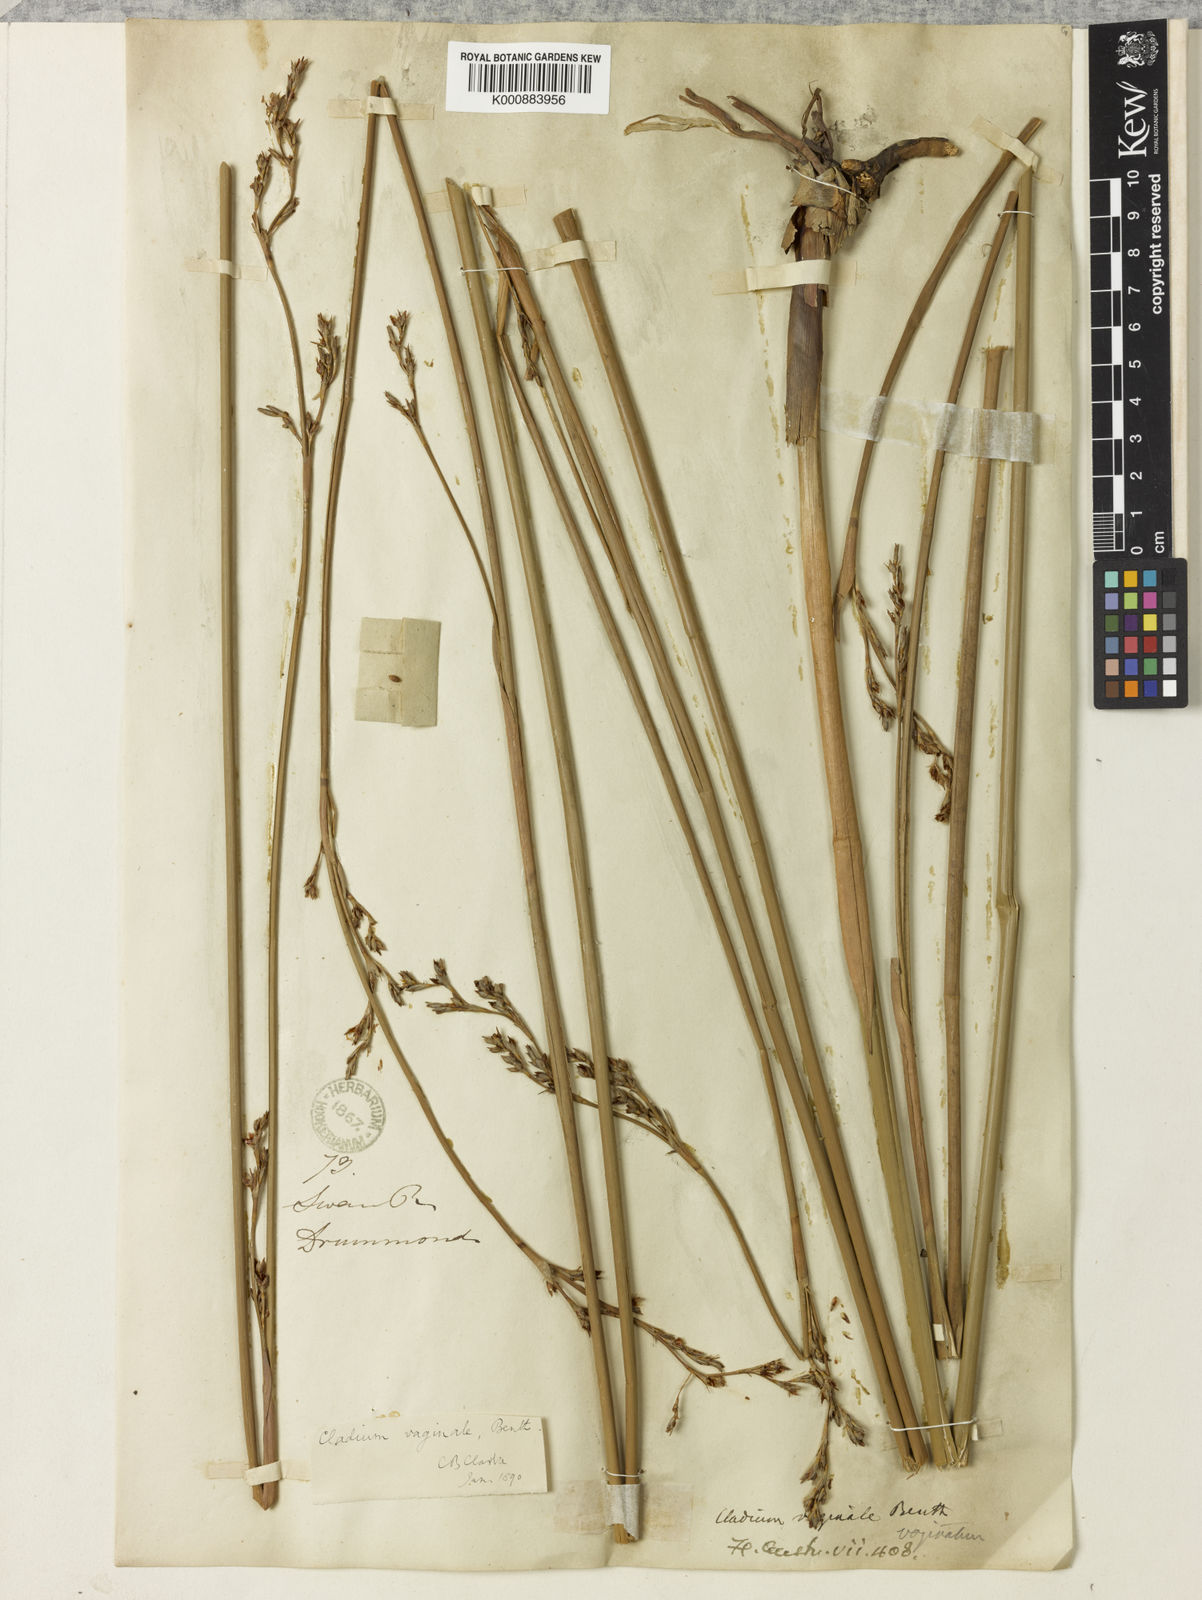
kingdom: Plantae
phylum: Tracheophyta
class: Liliopsida
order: Poales
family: Cyperaceae
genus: Machaerina
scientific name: Machaerina vaginalis
